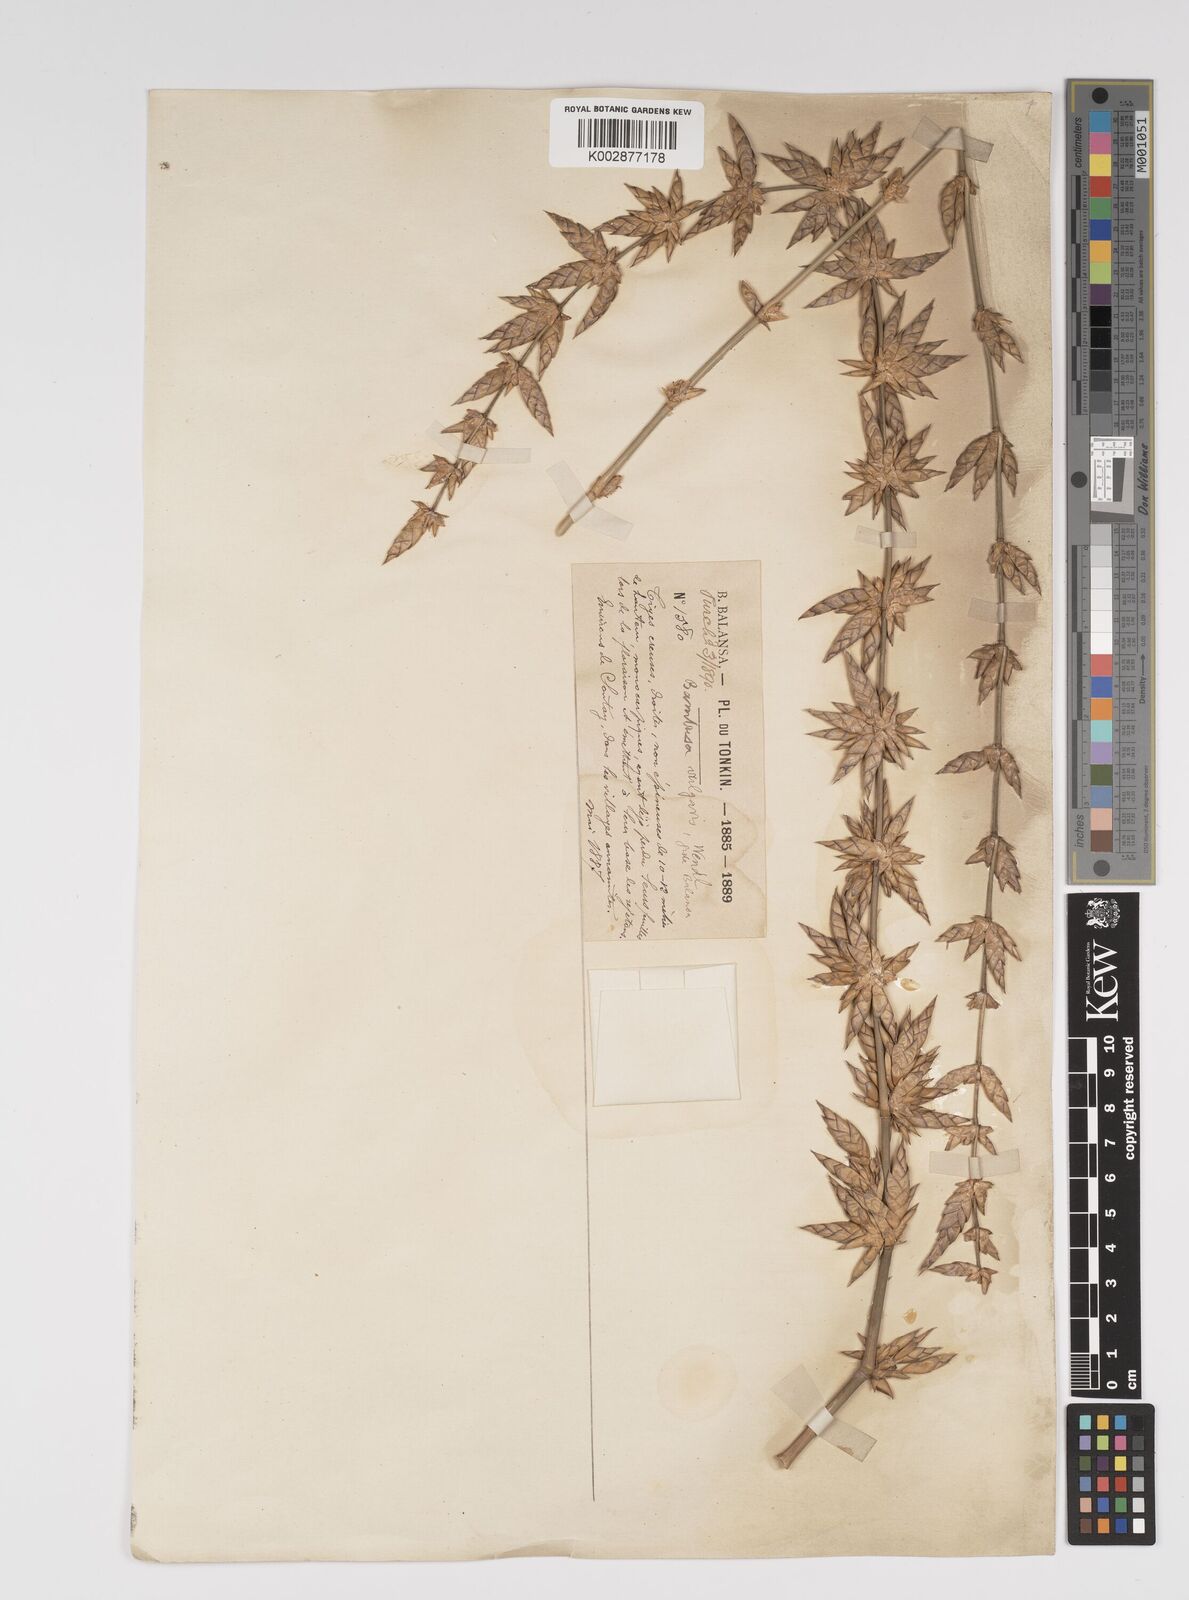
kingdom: Plantae
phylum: Tracheophyta
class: Liliopsida
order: Poales
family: Poaceae
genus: Bambusa
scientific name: Bambusa balcooa
